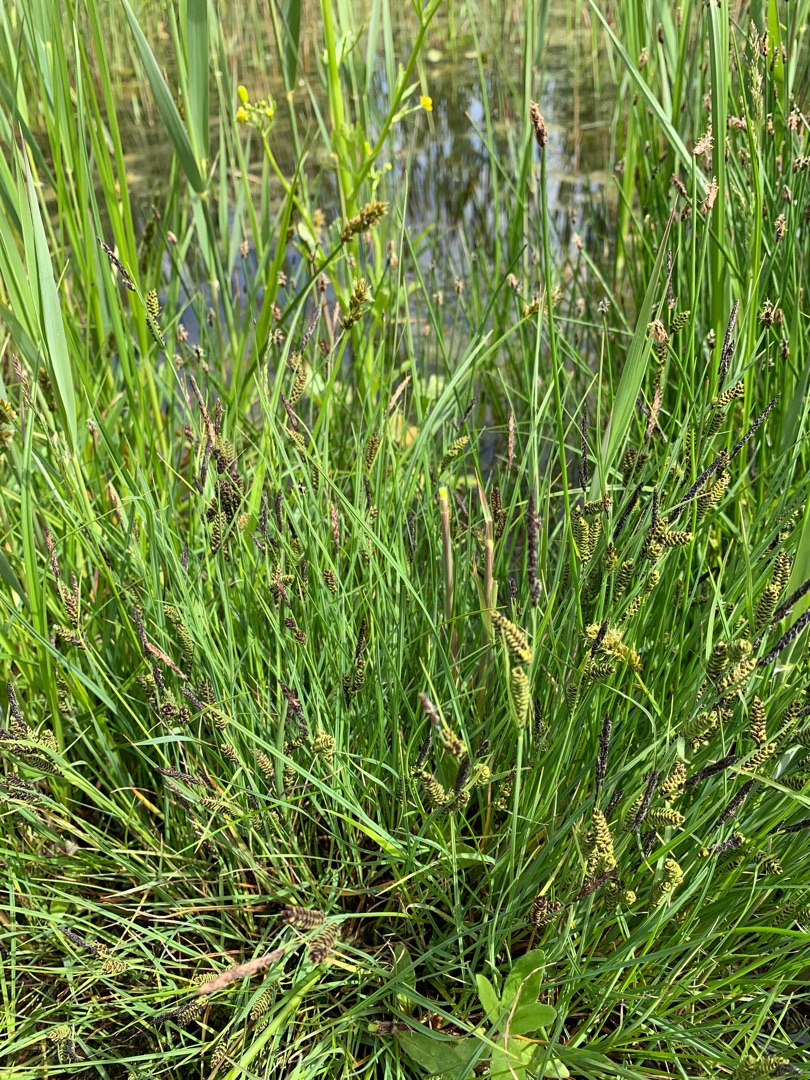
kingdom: Plantae
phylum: Tracheophyta
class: Liliopsida
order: Poales
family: Cyperaceae
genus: Carex
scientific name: Carex nigra
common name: Almindelig star
